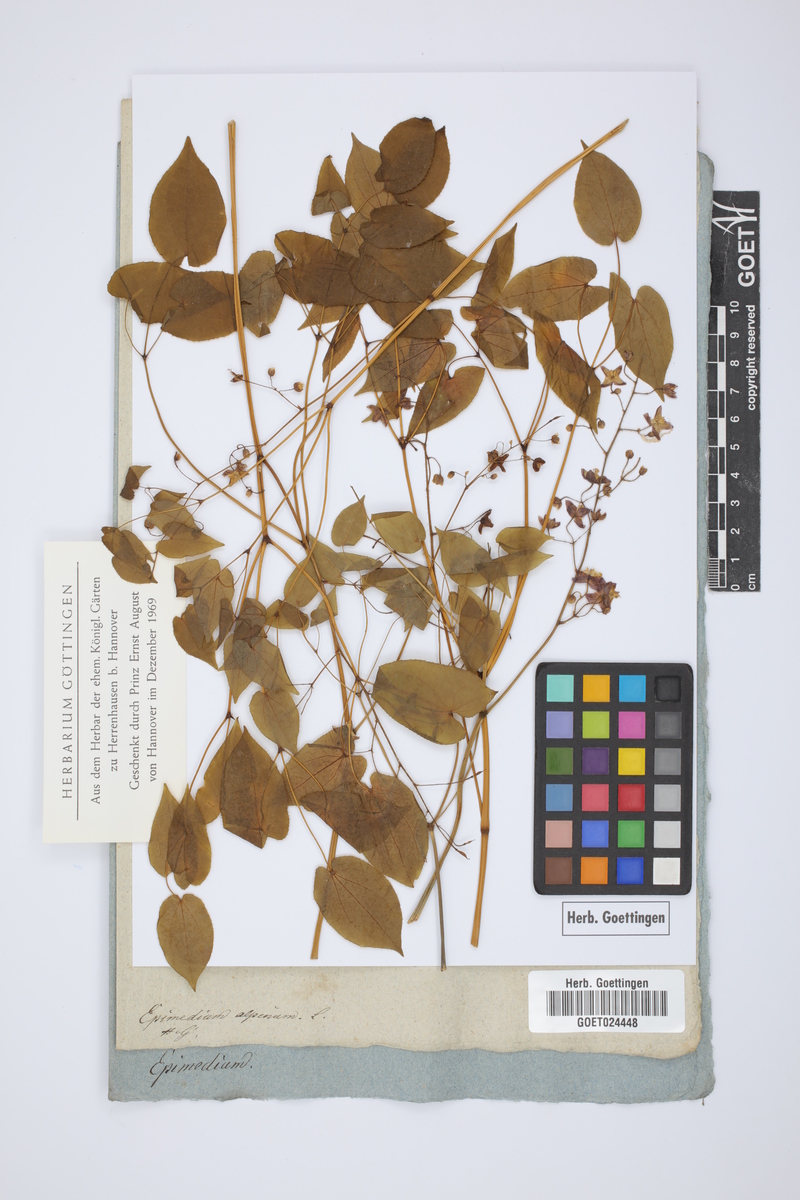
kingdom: Plantae
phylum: Tracheophyta
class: Magnoliopsida
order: Ranunculales
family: Berberidaceae
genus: Epimedium
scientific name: Epimedium alpinum
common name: Barrenwort
